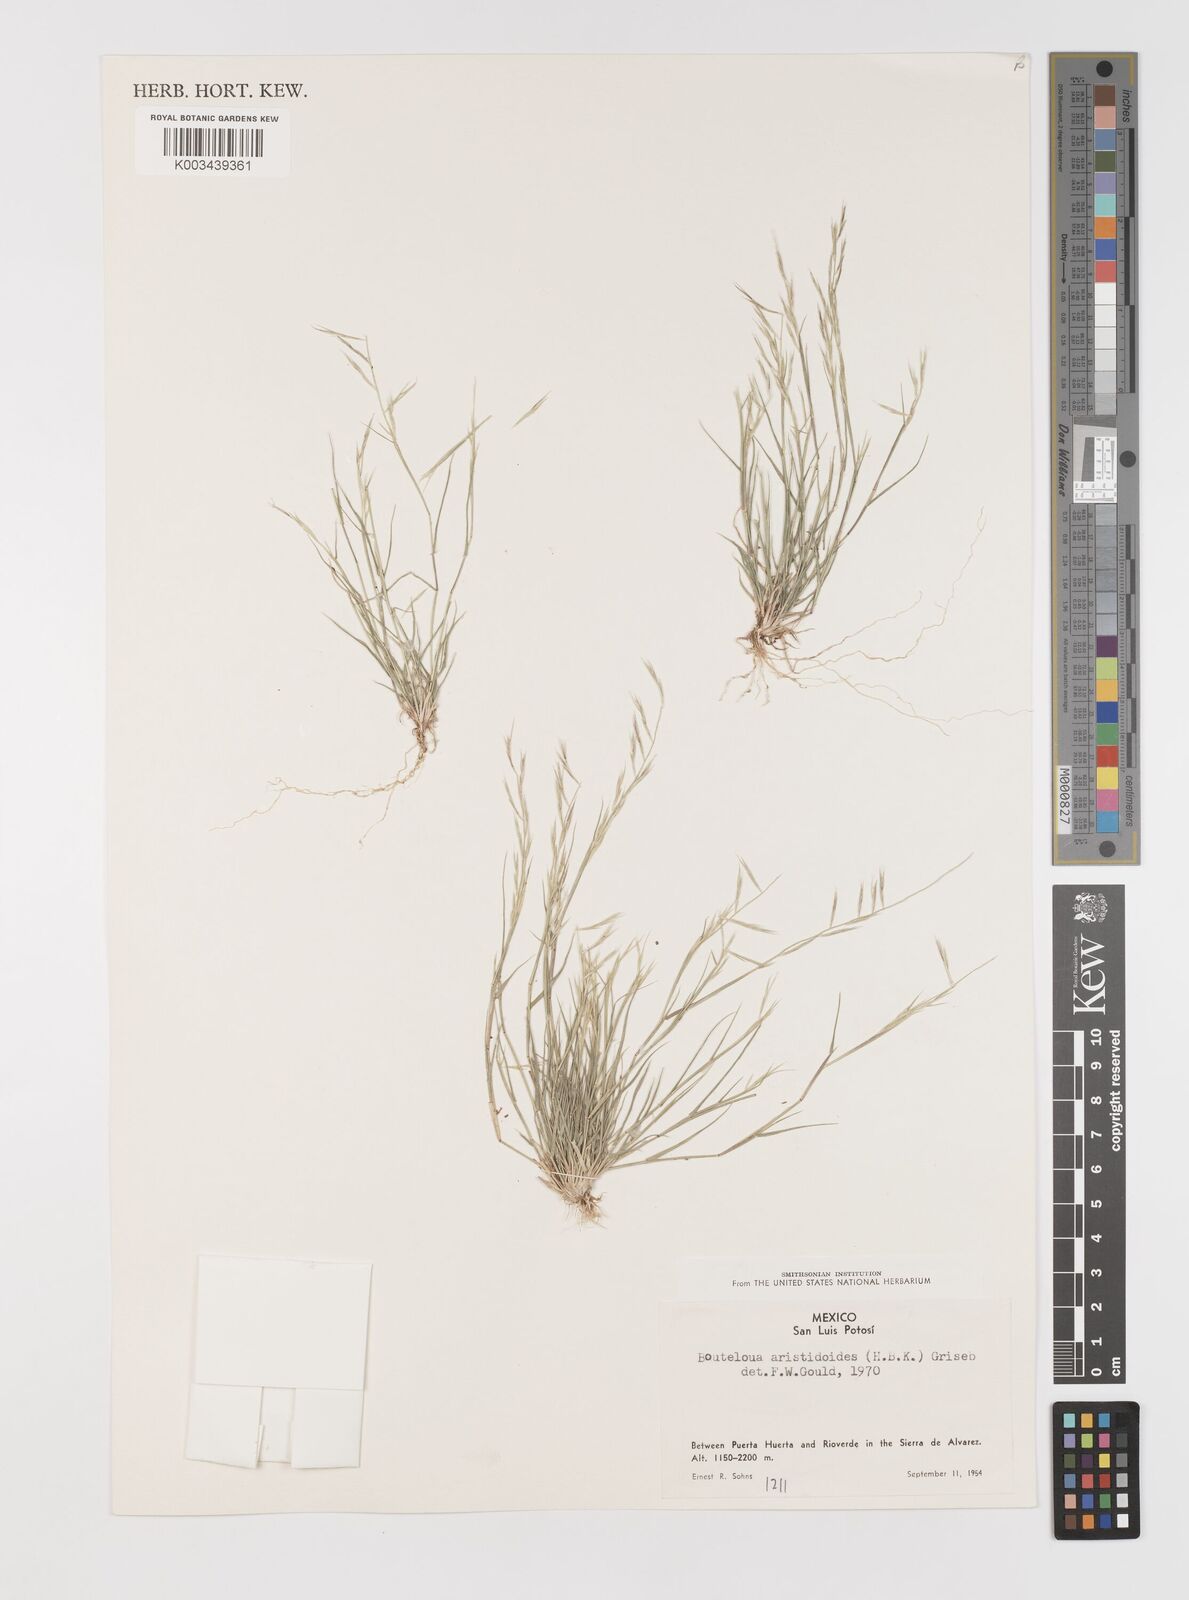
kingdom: Plantae
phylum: Tracheophyta
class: Liliopsida
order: Poales
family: Poaceae
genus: Bouteloua
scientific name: Bouteloua aristidoides
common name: Needle grama
